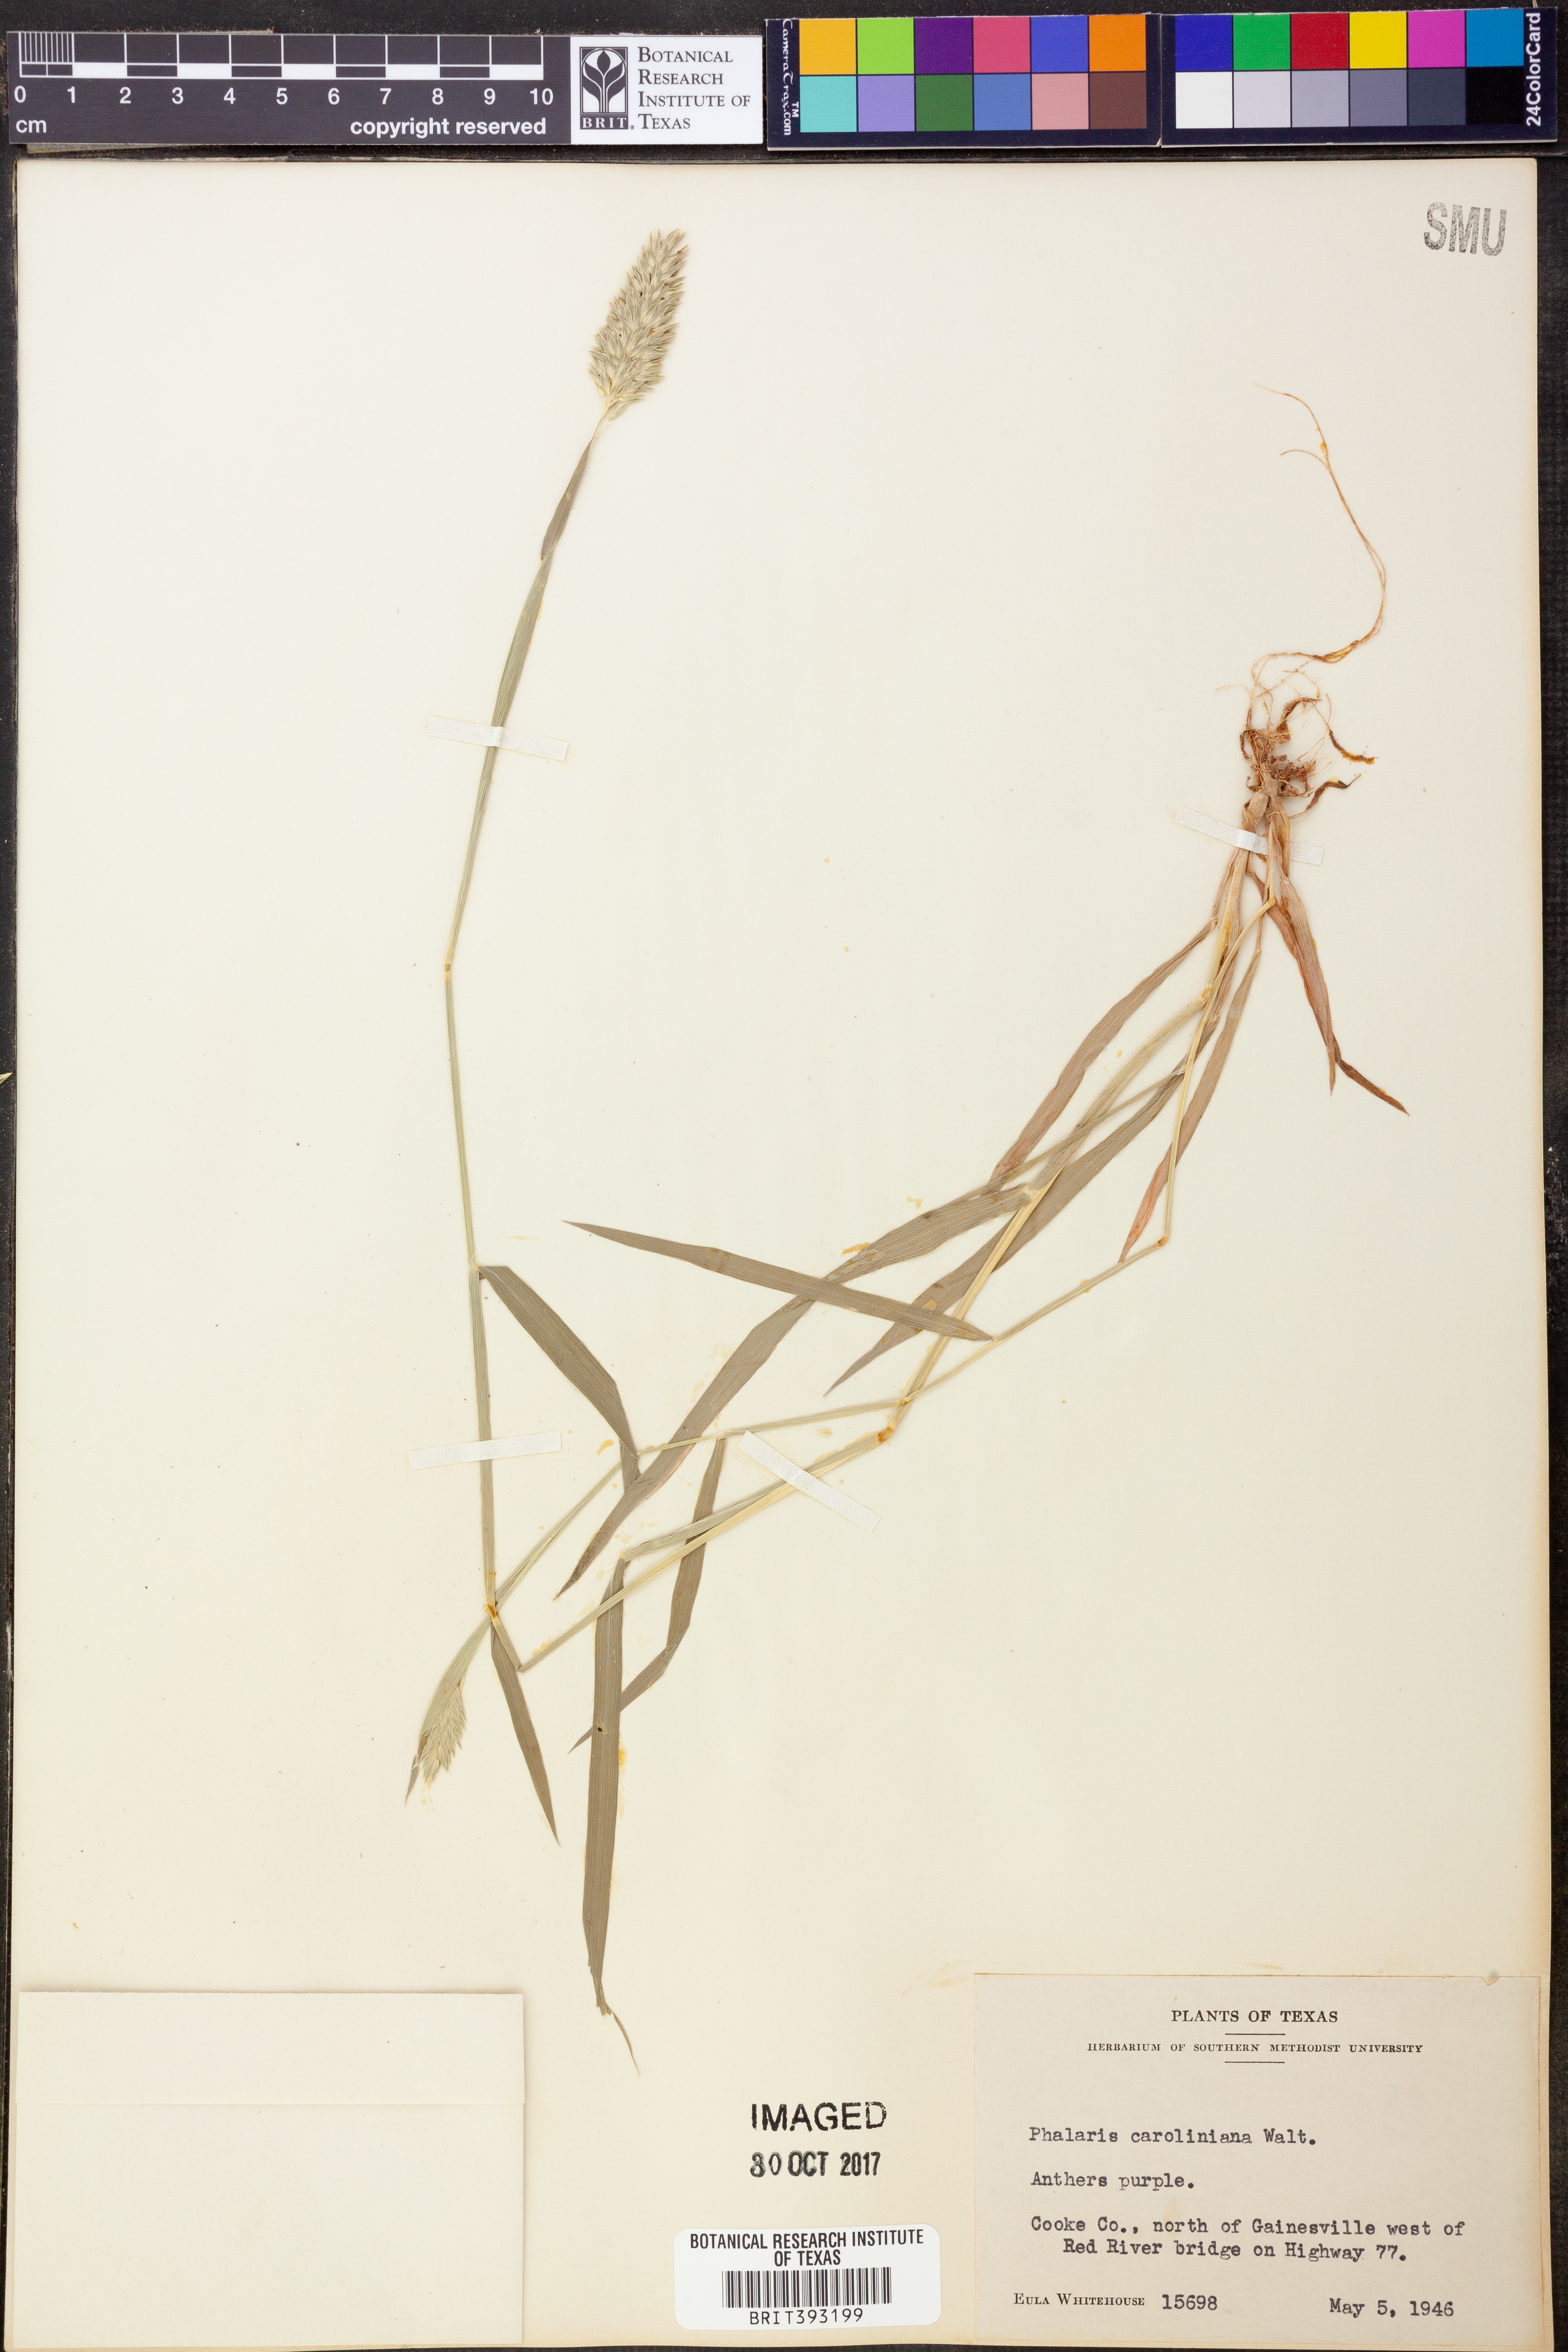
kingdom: Plantae
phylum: Tracheophyta
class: Liliopsida
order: Poales
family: Poaceae
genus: Phalaris
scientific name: Phalaris caroliniana
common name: May grass
